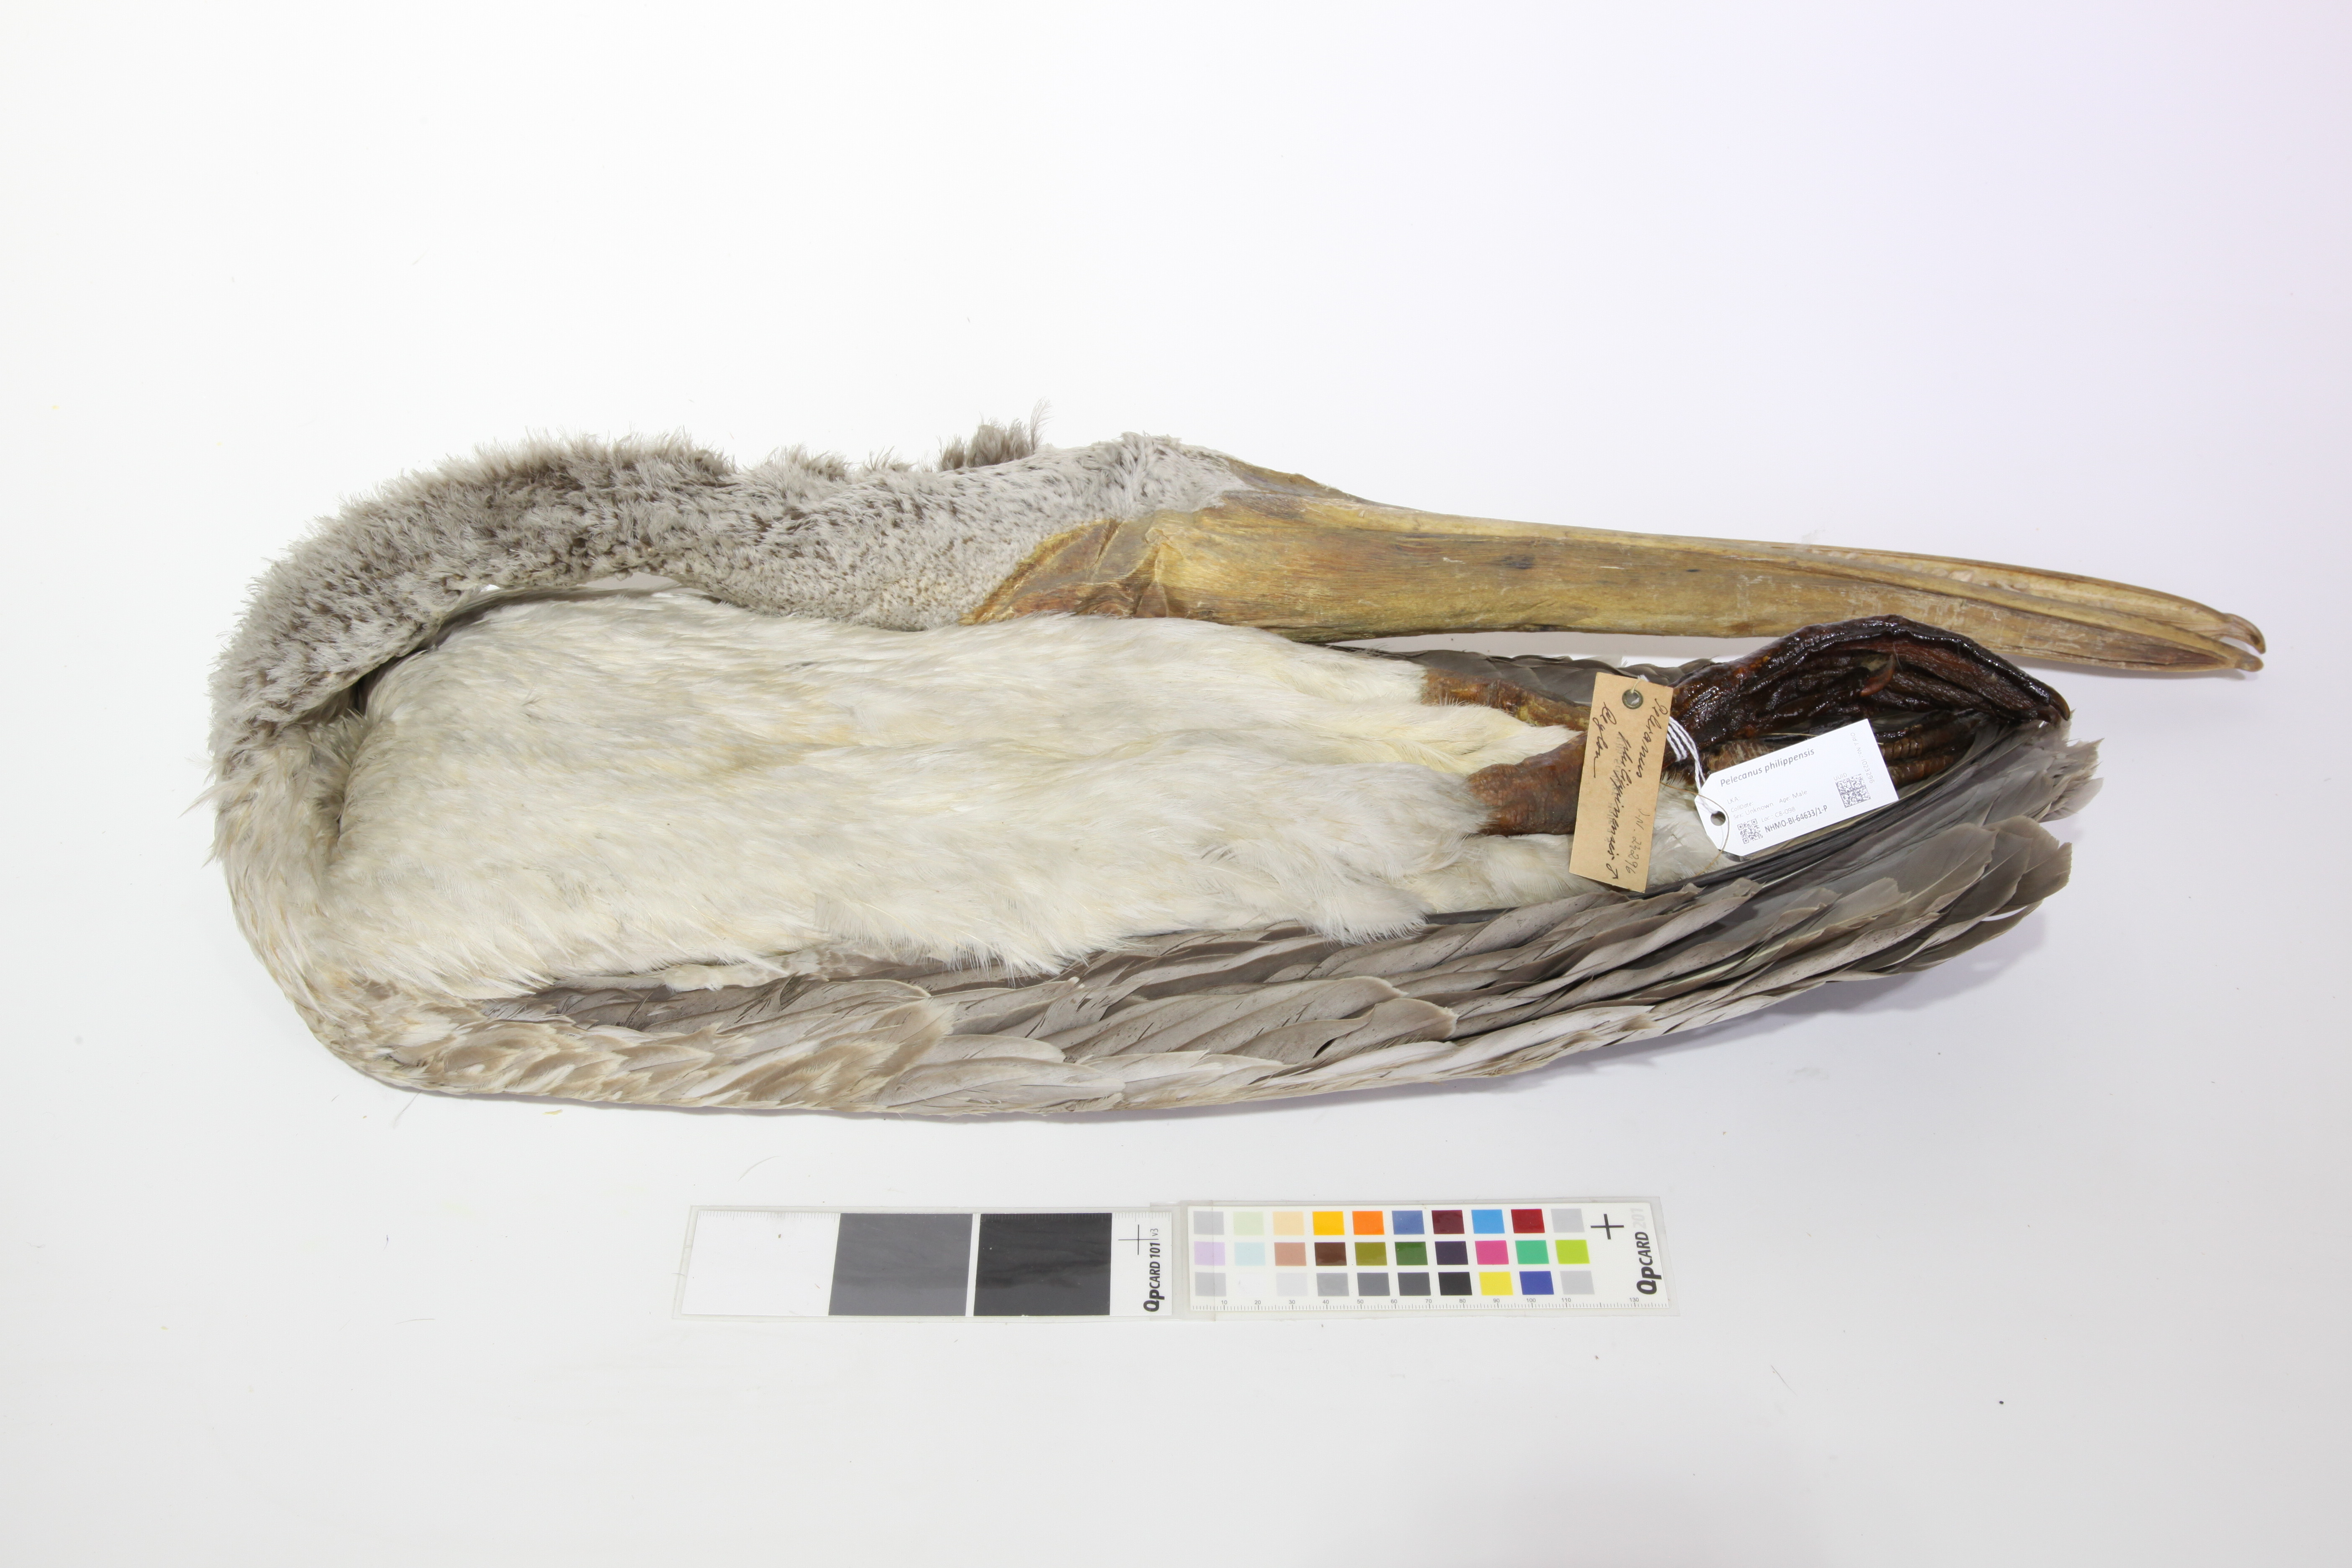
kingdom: Animalia
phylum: Chordata
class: Aves
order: Pelecaniformes
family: Pelecanidae
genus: Pelecanus
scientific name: Pelecanus philippensis
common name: Spot-billed pelican
